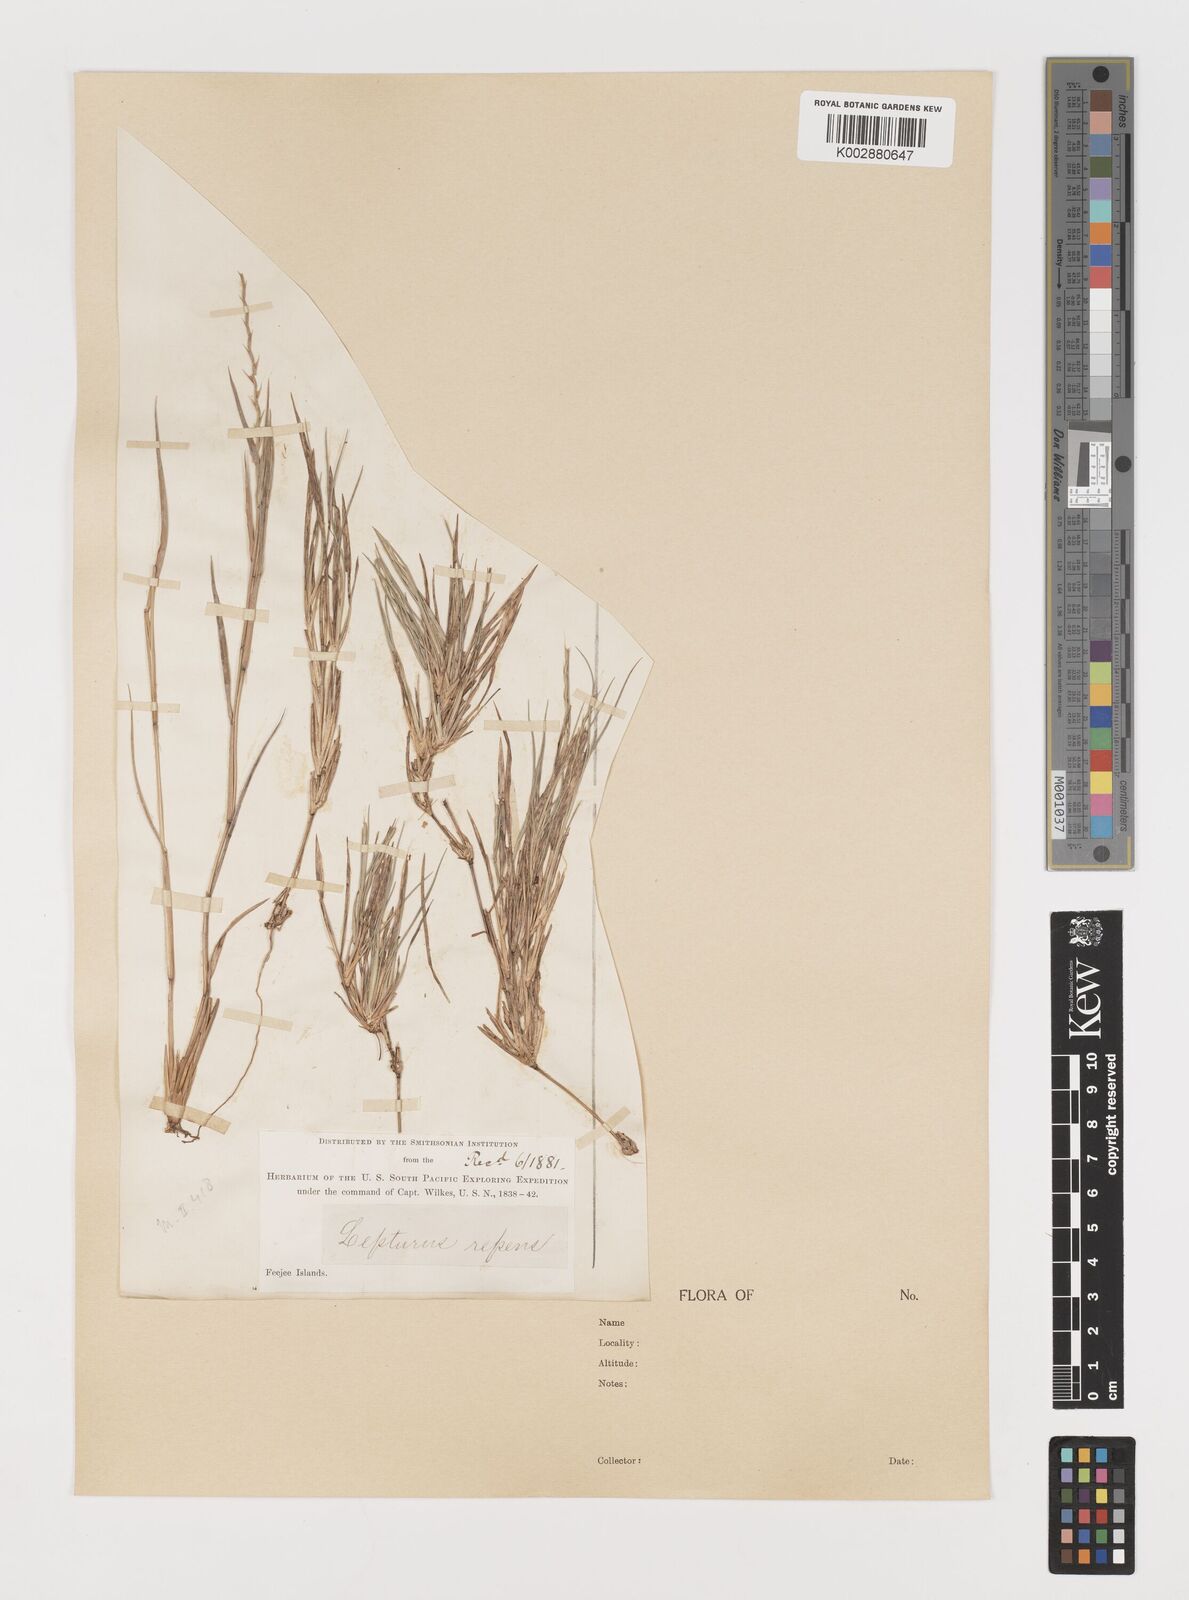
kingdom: Plantae
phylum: Tracheophyta
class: Liliopsida
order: Poales
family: Poaceae
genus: Lepturus
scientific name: Lepturus
